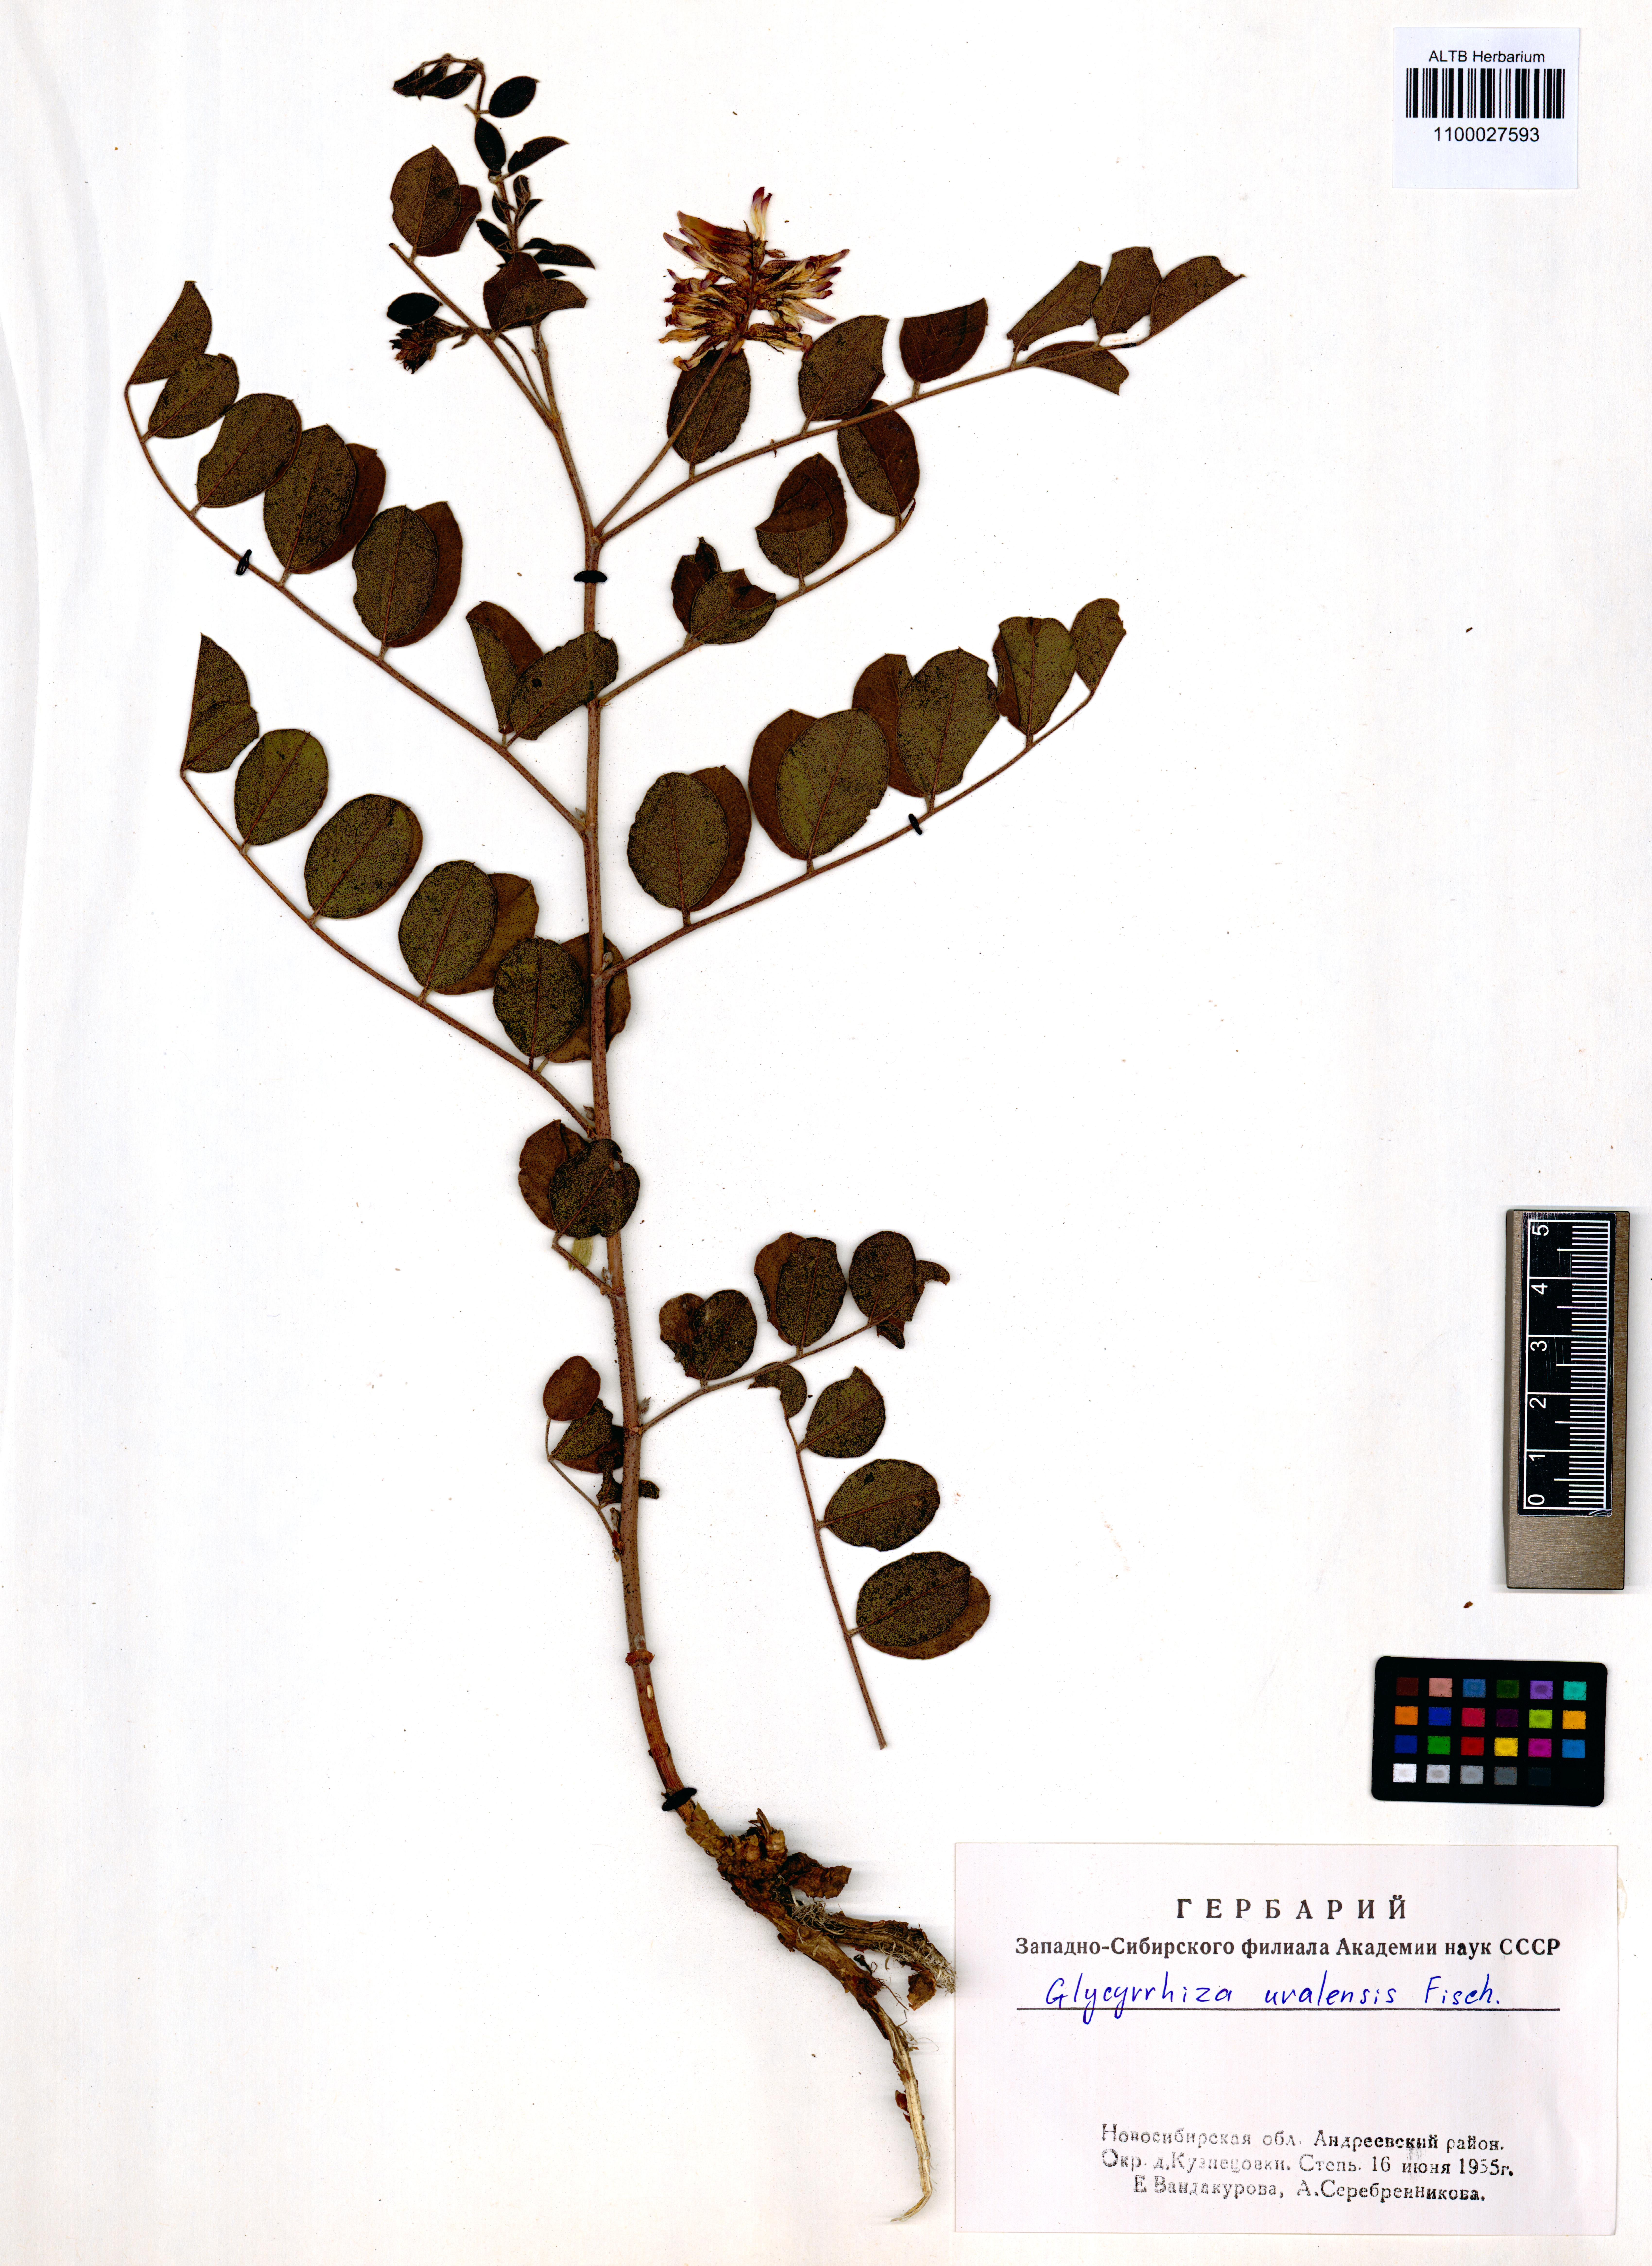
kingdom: Plantae
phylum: Tracheophyta
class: Magnoliopsida
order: Fabales
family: Fabaceae
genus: Glycyrrhiza
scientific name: Glycyrrhiza uralensis
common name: Chinese licorice
